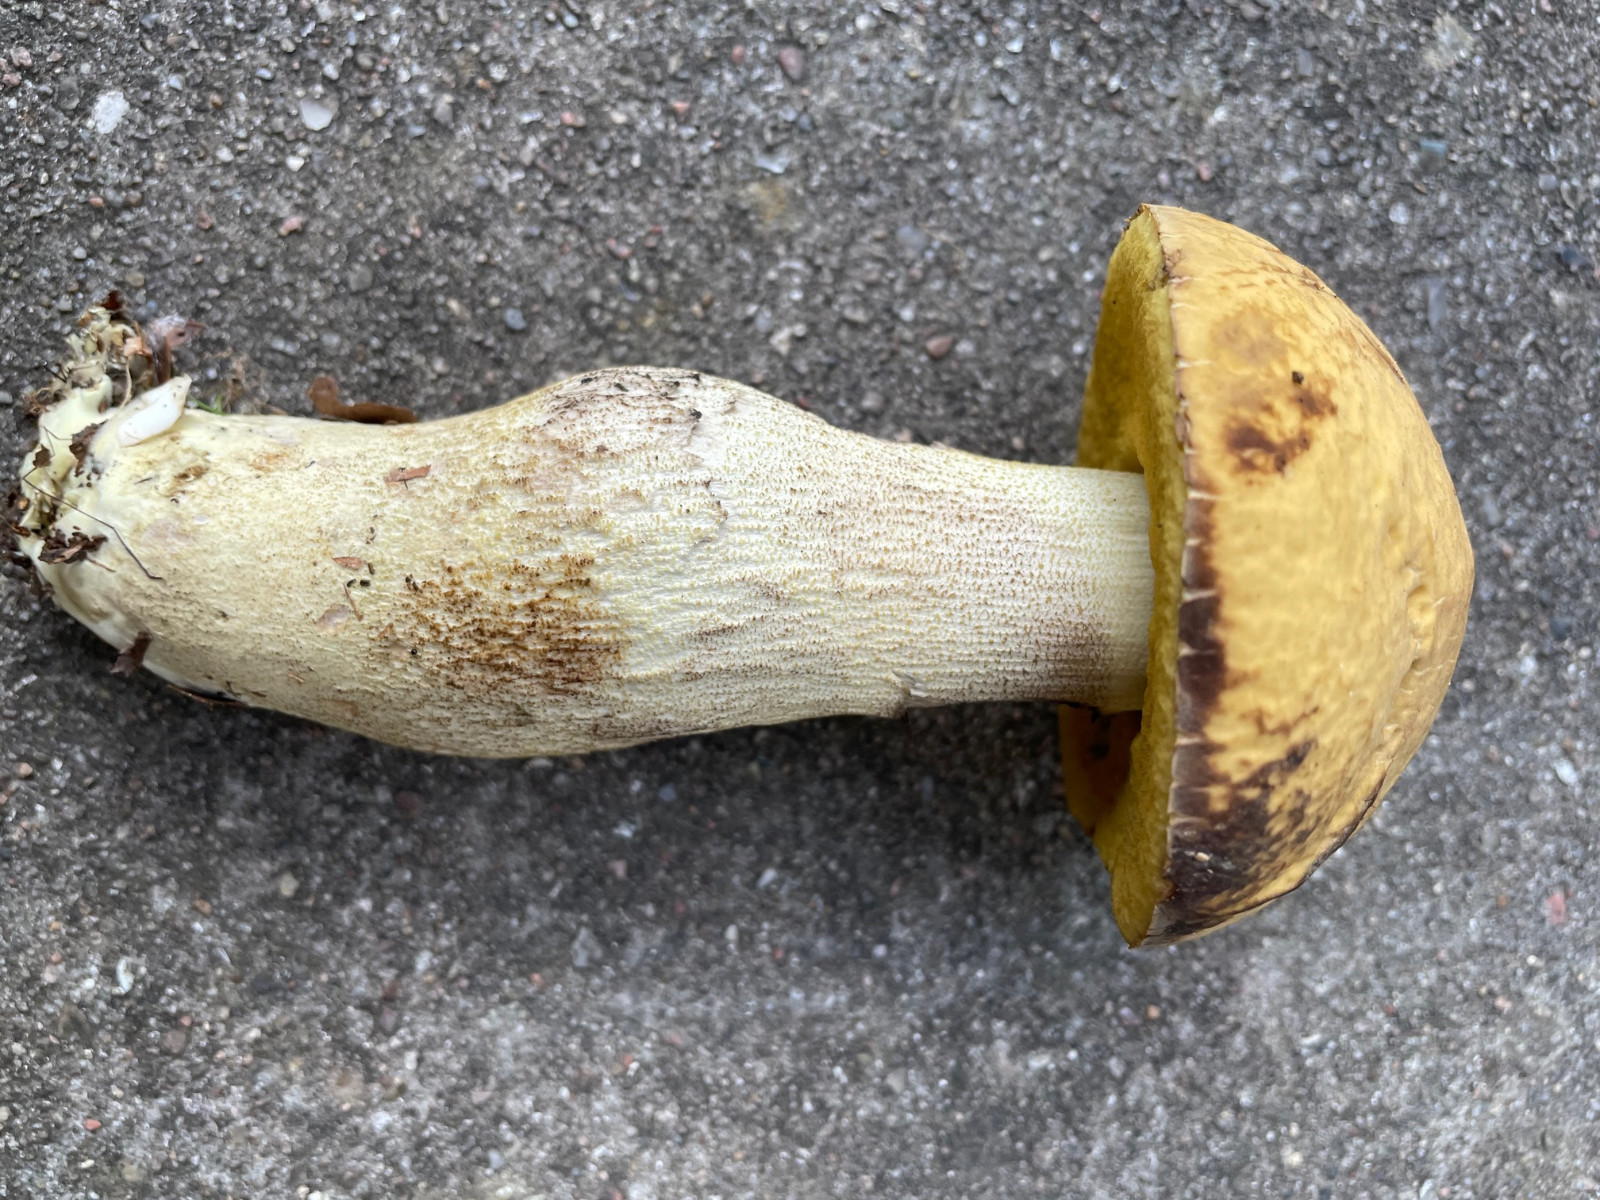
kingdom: Fungi
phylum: Basidiomycota
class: Agaricomycetes
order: Boletales
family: Boletaceae
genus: Leccinellum
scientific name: Leccinellum crocipodium
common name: gul skælrørhat
